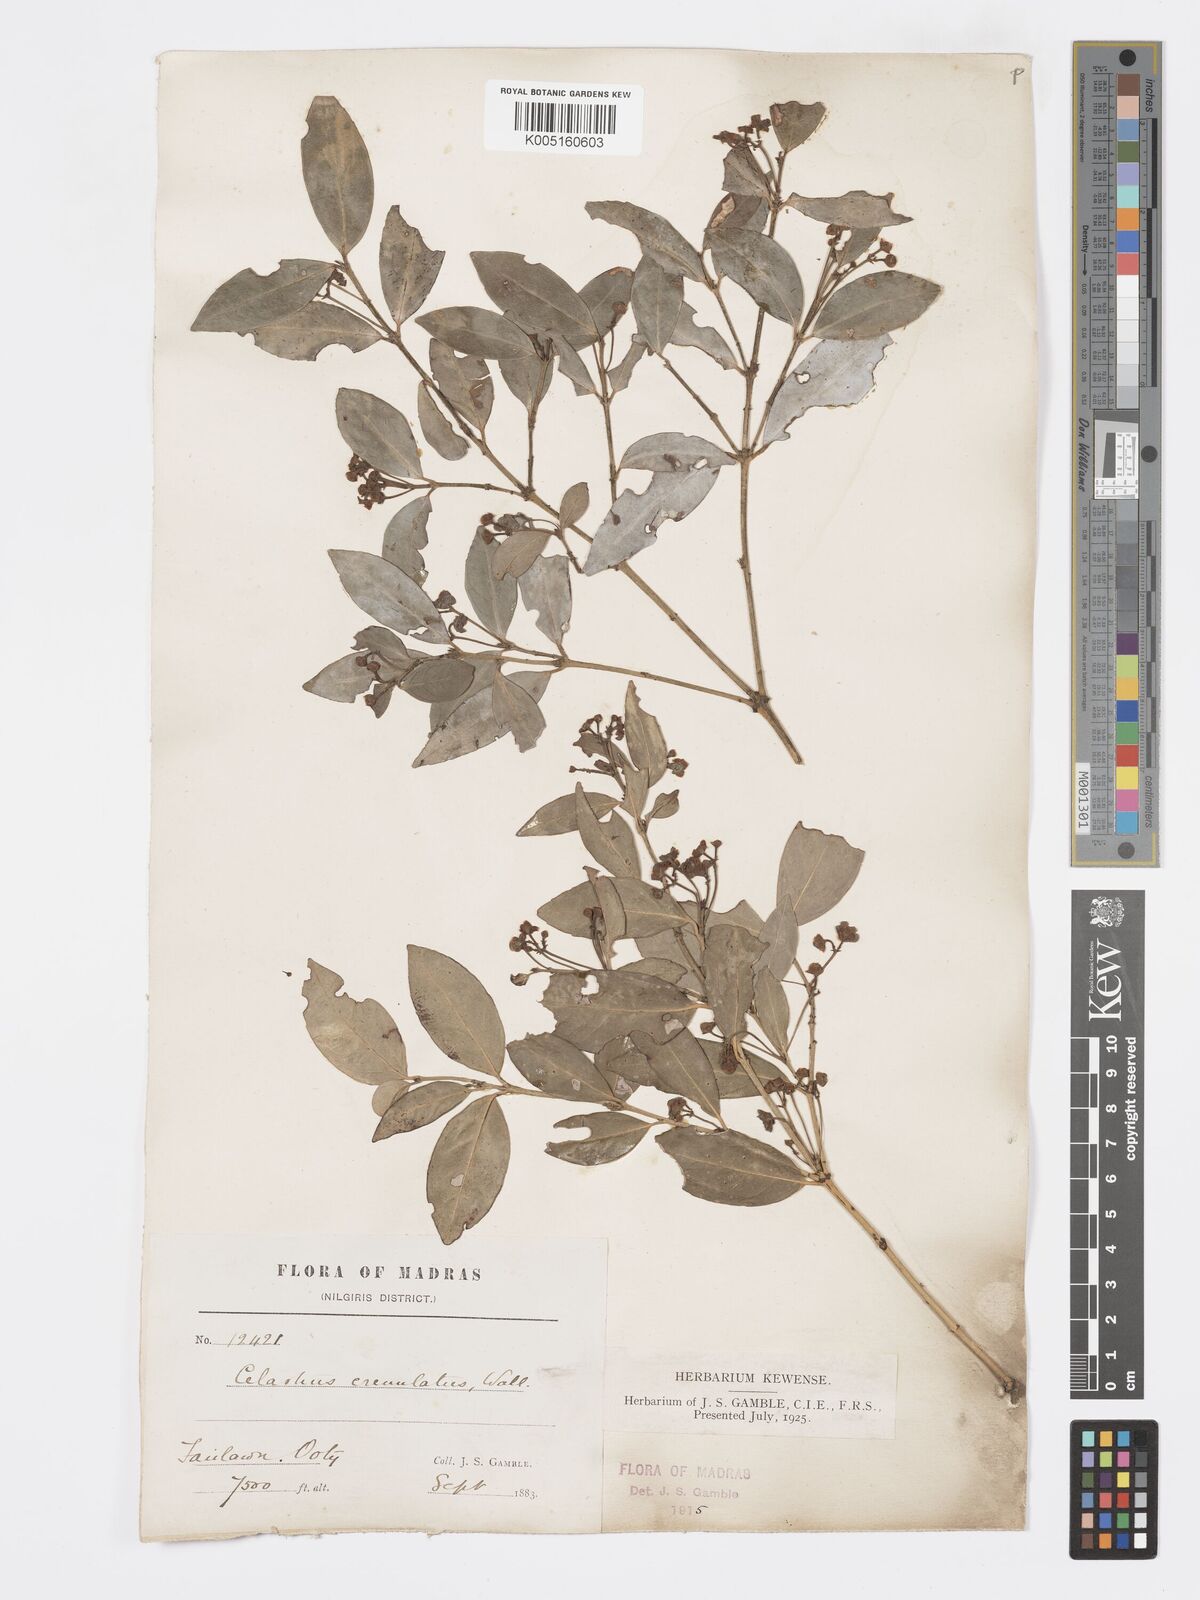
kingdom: Plantae
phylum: Tracheophyta
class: Magnoliopsida
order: Celastrales
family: Celastraceae
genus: Euonymus
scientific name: Euonymus crenulatus
